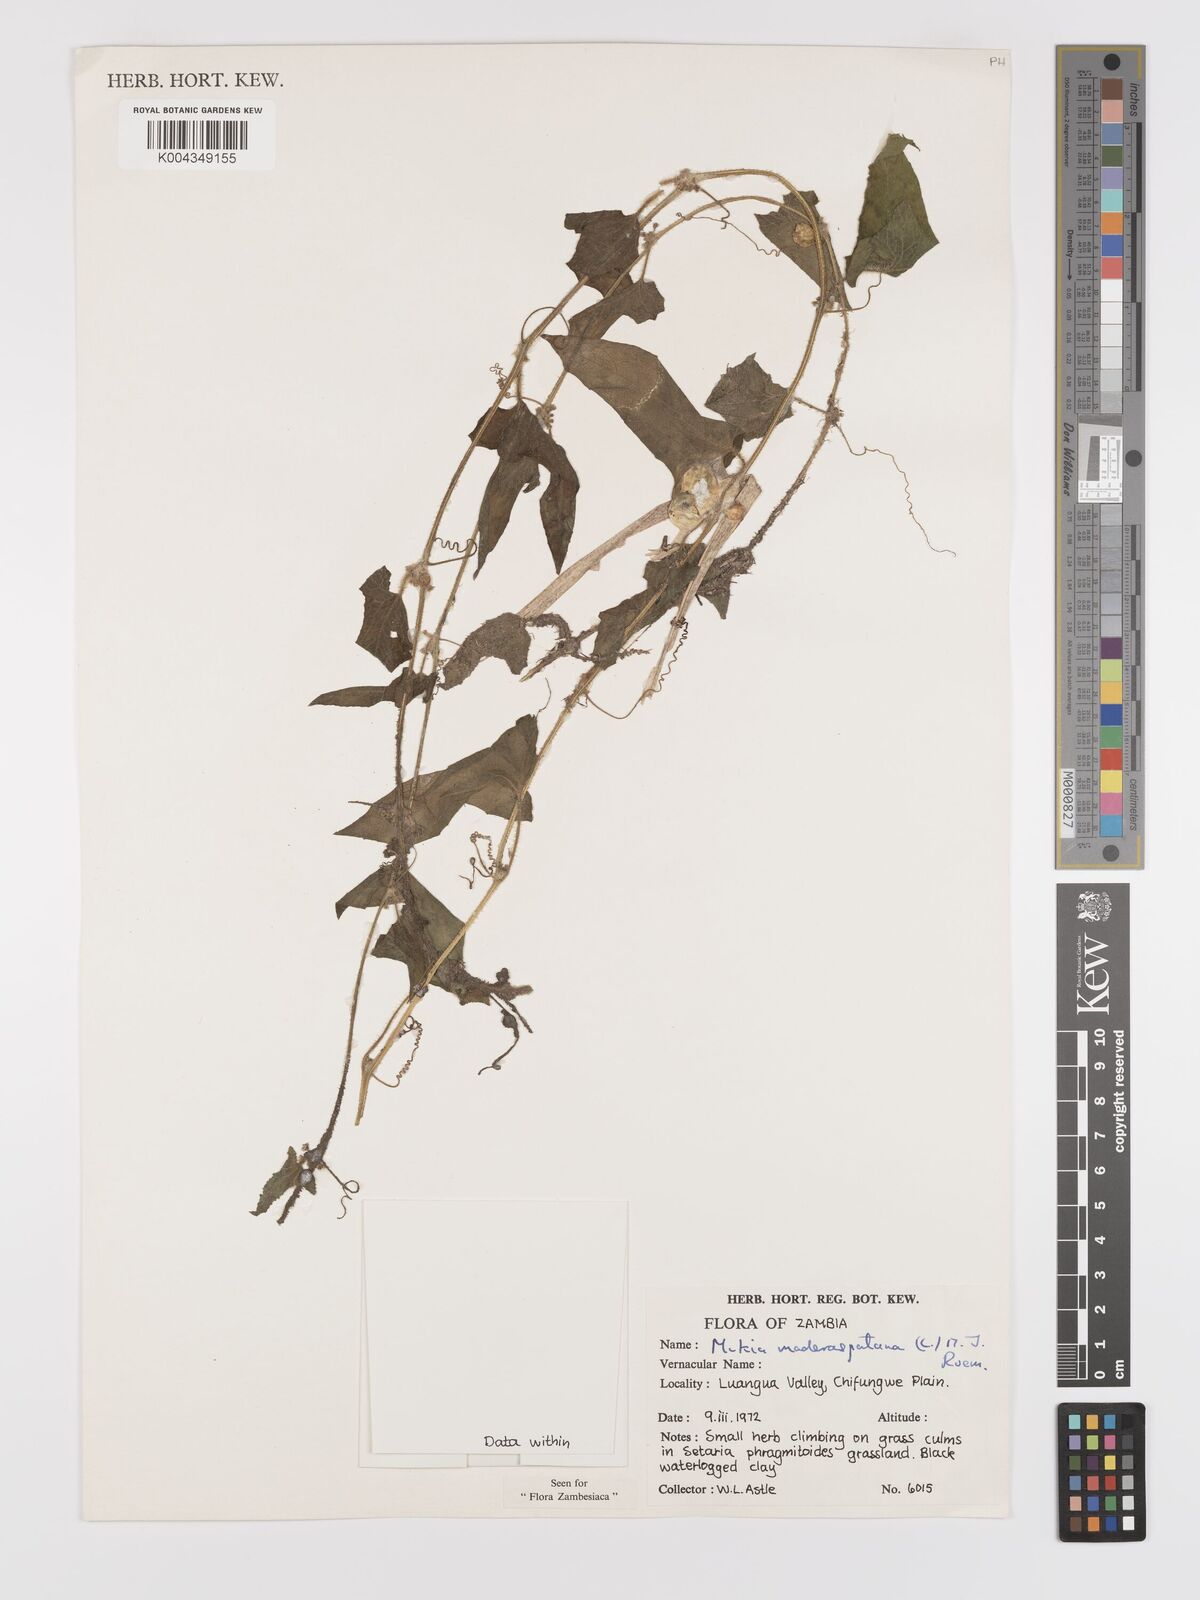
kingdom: Plantae
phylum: Tracheophyta
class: Magnoliopsida
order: Cucurbitales
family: Cucurbitaceae
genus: Cucumis
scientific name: Cucumis maderaspatanus
